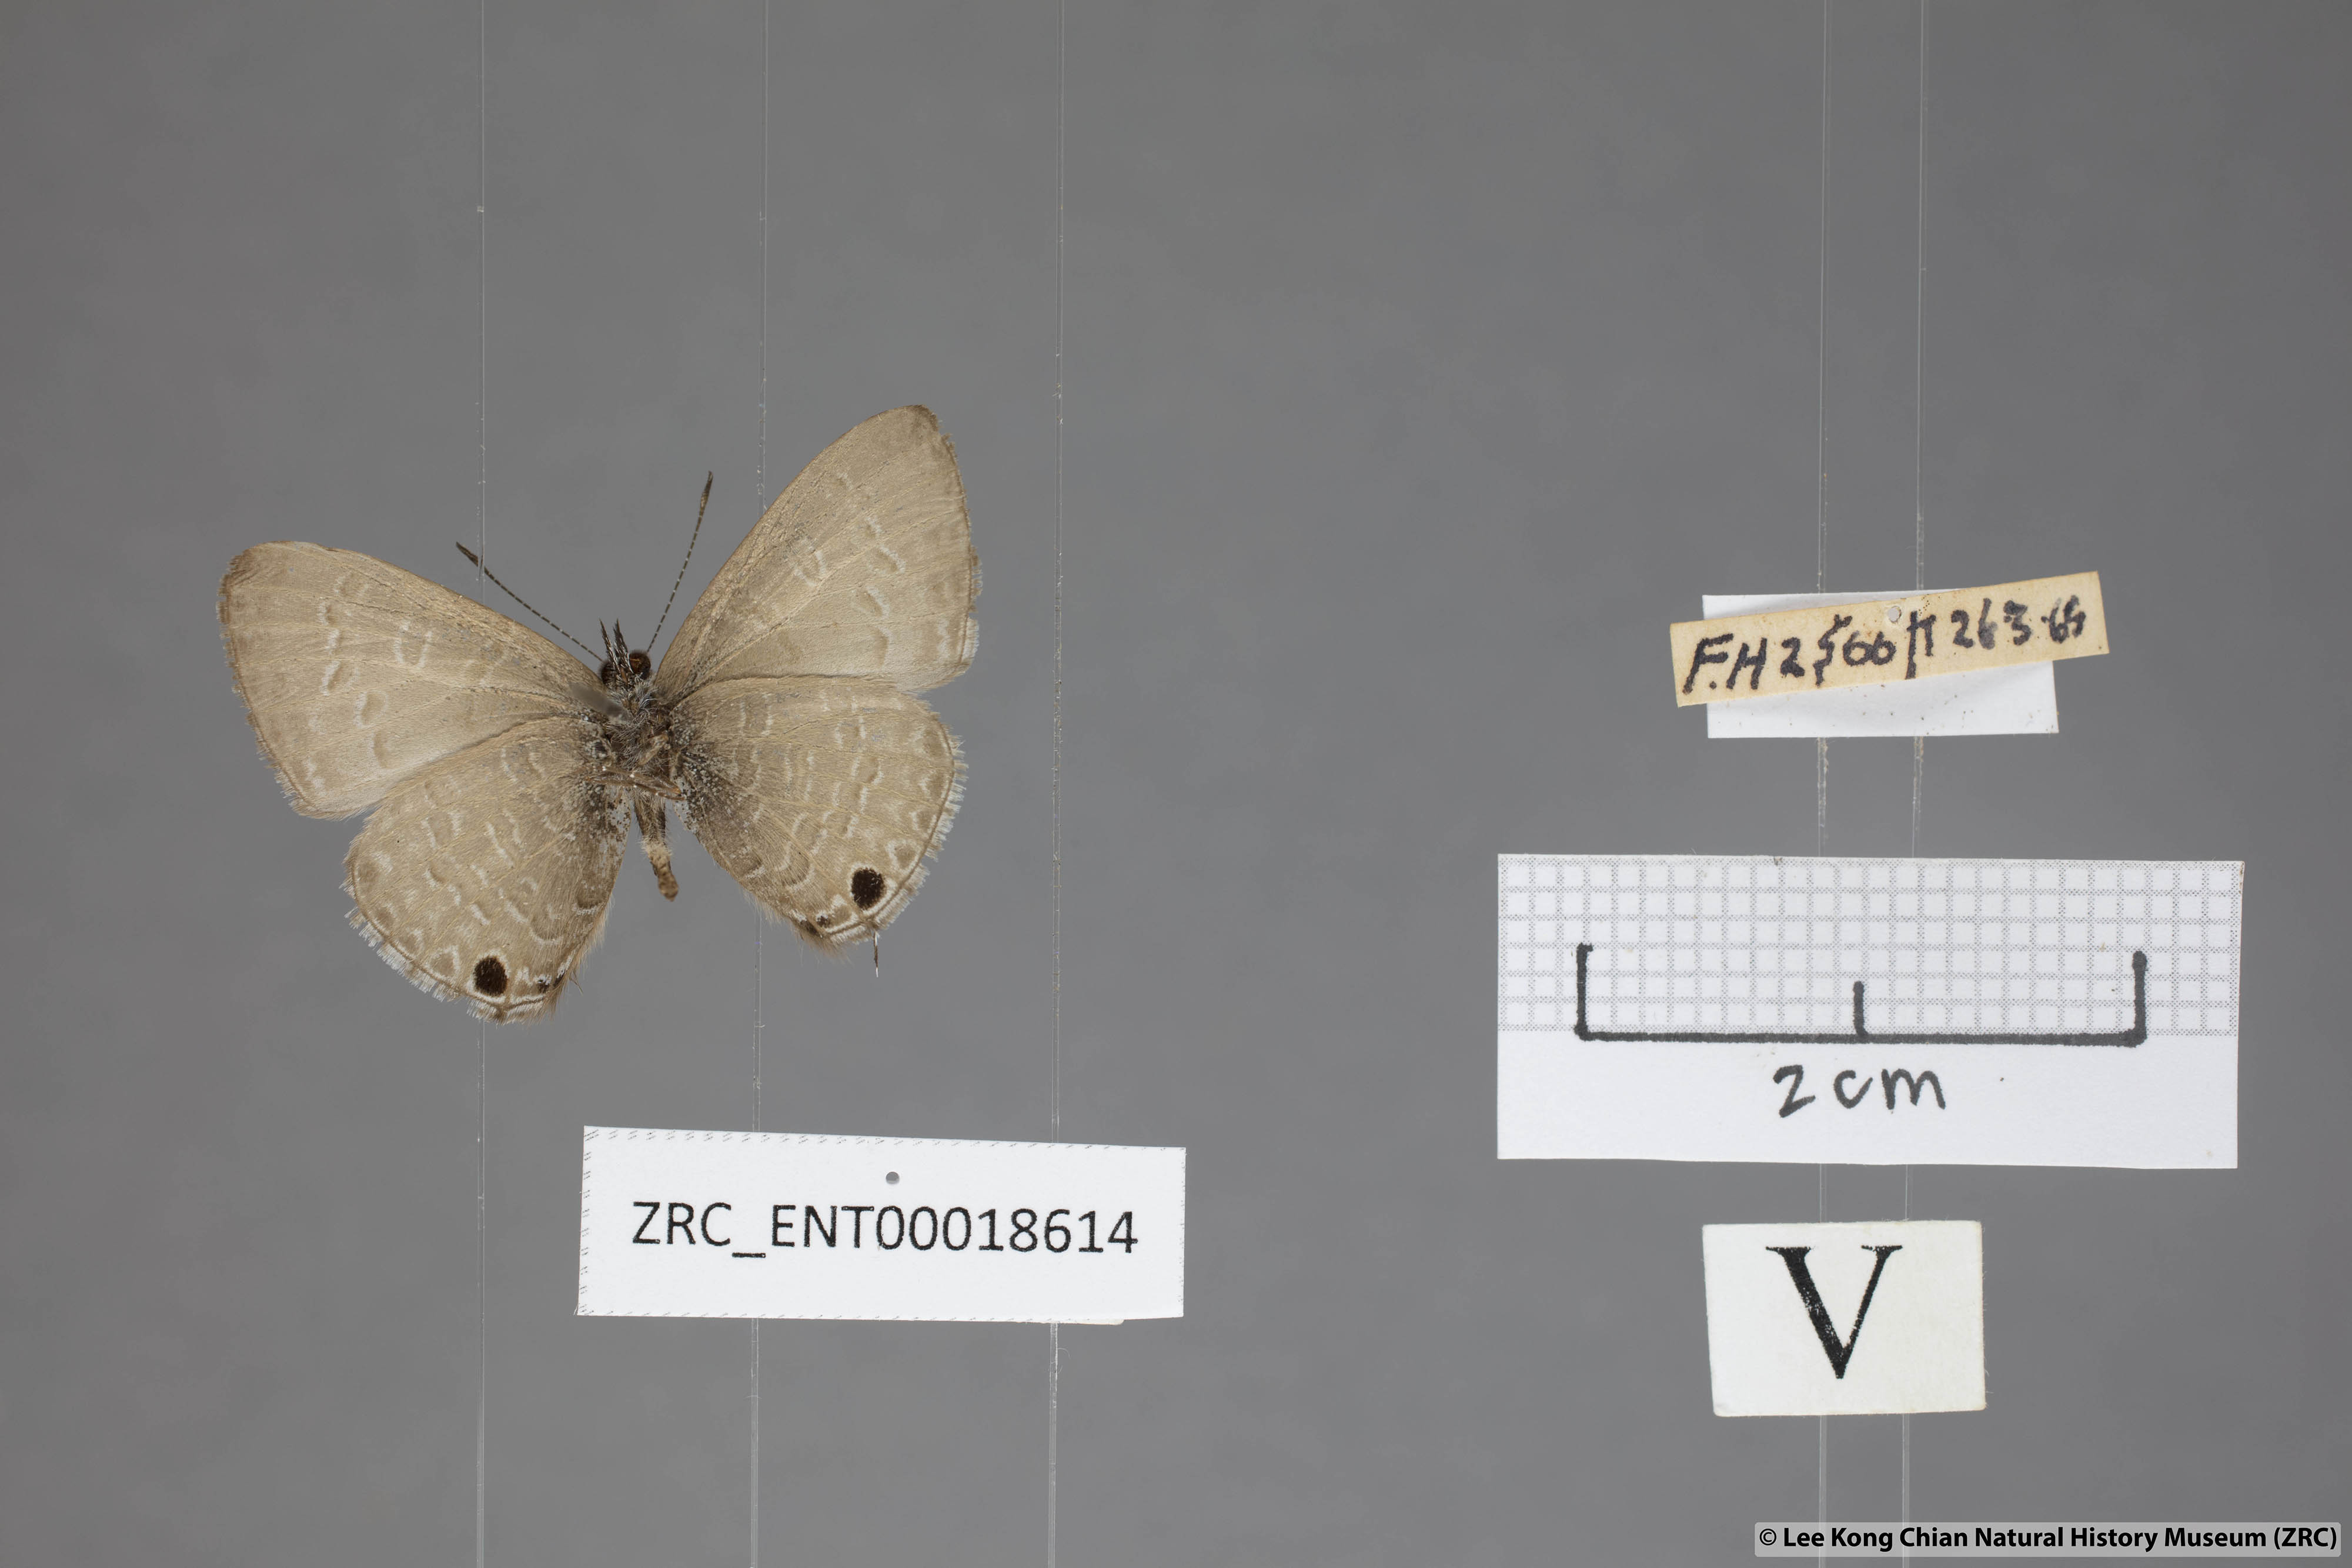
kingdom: Animalia
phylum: Arthropoda
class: Insecta
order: Lepidoptera
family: Lycaenidae
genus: Prosotas
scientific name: Prosotas nelides
